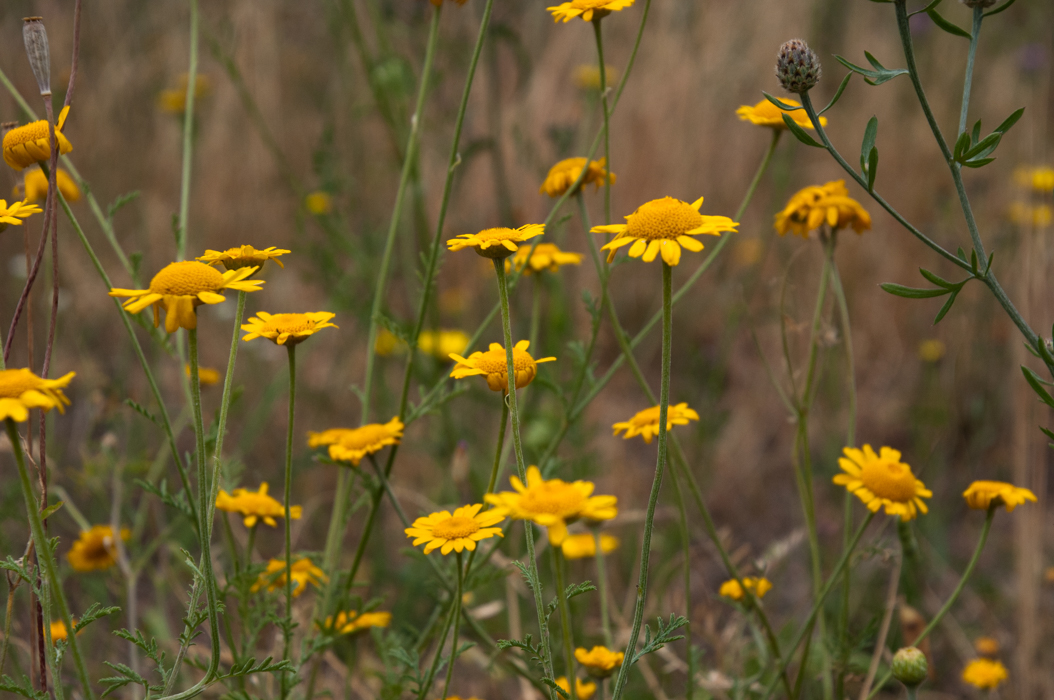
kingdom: Plantae
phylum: Tracheophyta
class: Magnoliopsida
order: Asterales
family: Asteraceae
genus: Cota
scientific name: Cota tinctoria
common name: Golden chamomile
